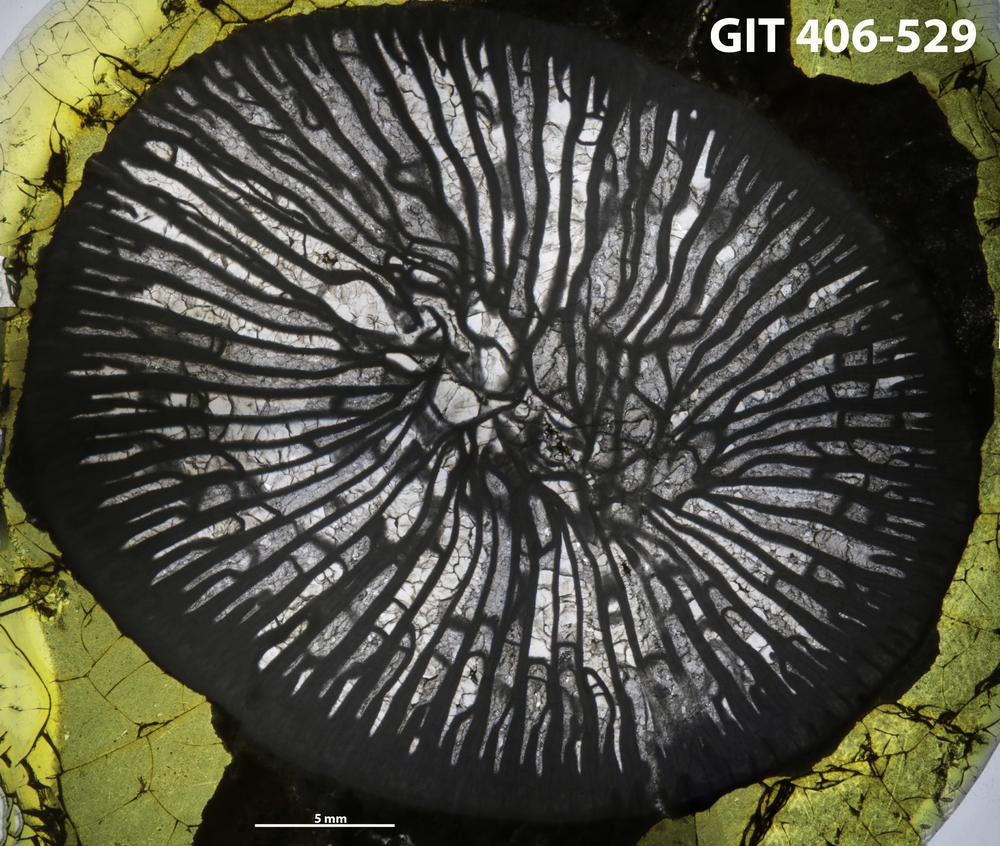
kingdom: Animalia
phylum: Cnidaria
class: Anthozoa
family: Streptelasmatidae
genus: Kaljolasma
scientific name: Kaljolasma
